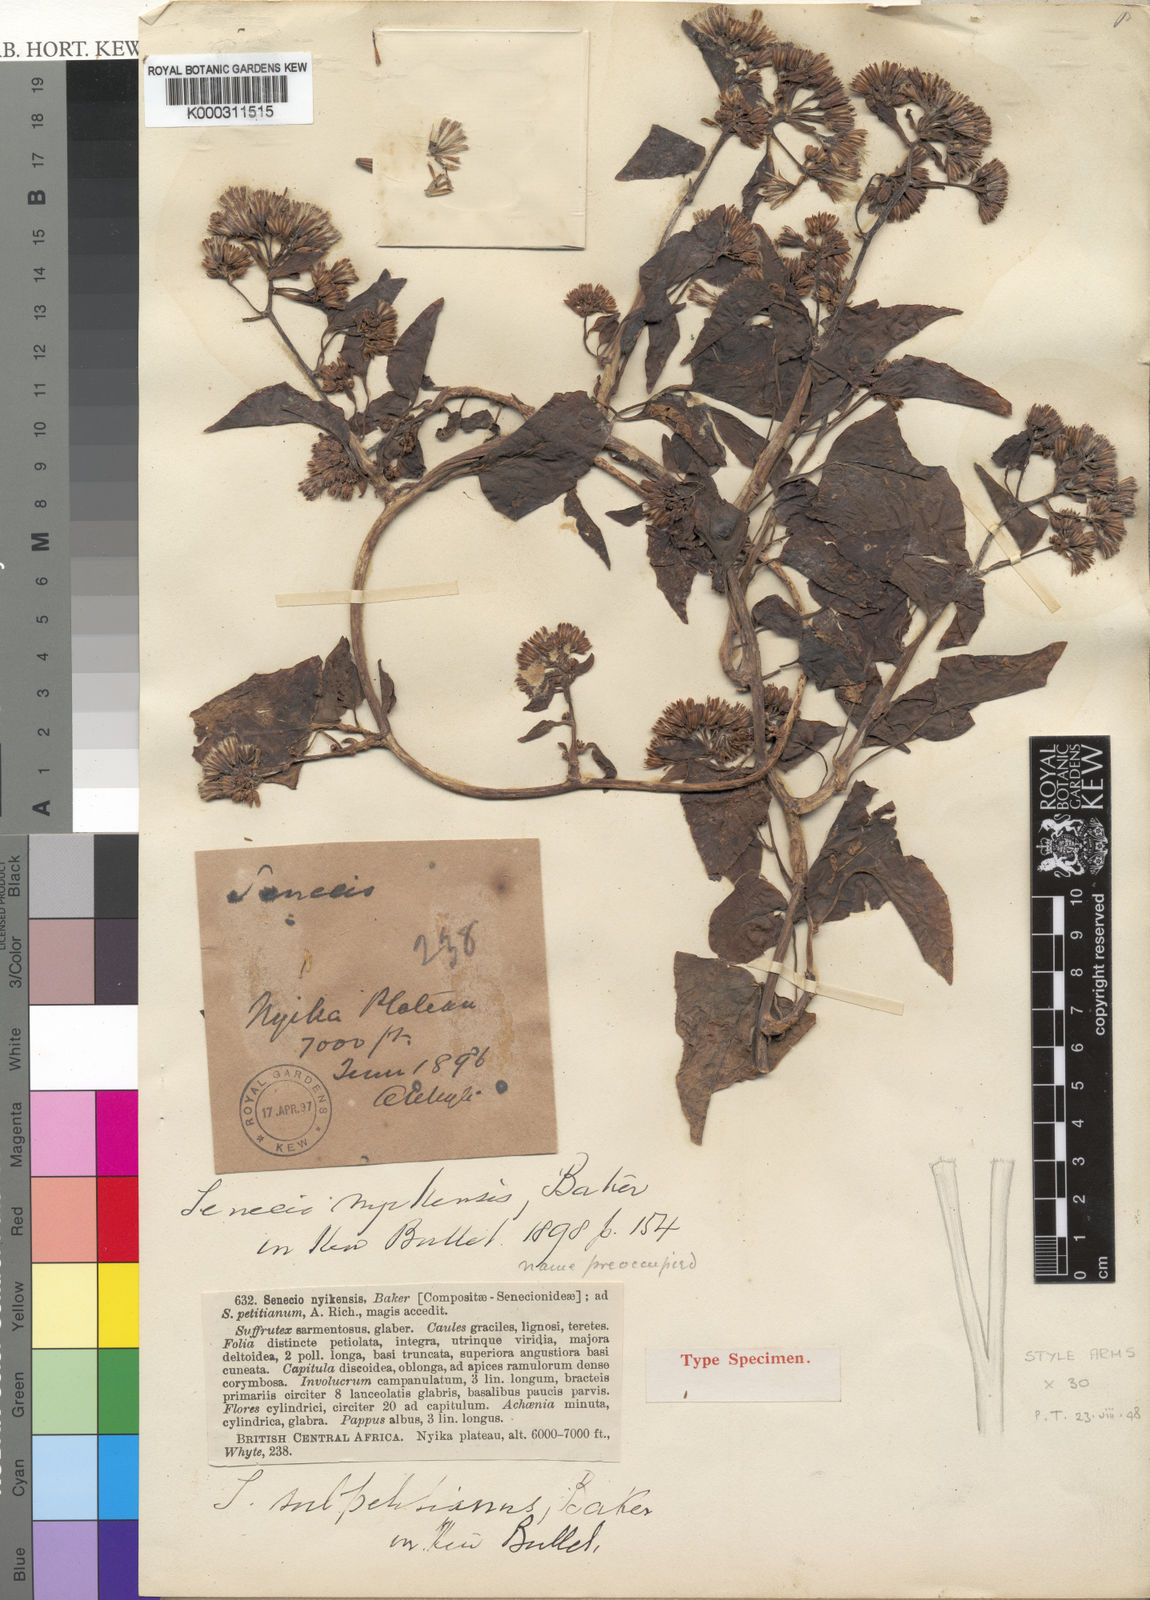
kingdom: Plantae
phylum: Tracheophyta
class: Magnoliopsida
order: Asterales
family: Asteraceae
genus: Senecio
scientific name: Senecio syringifolius
